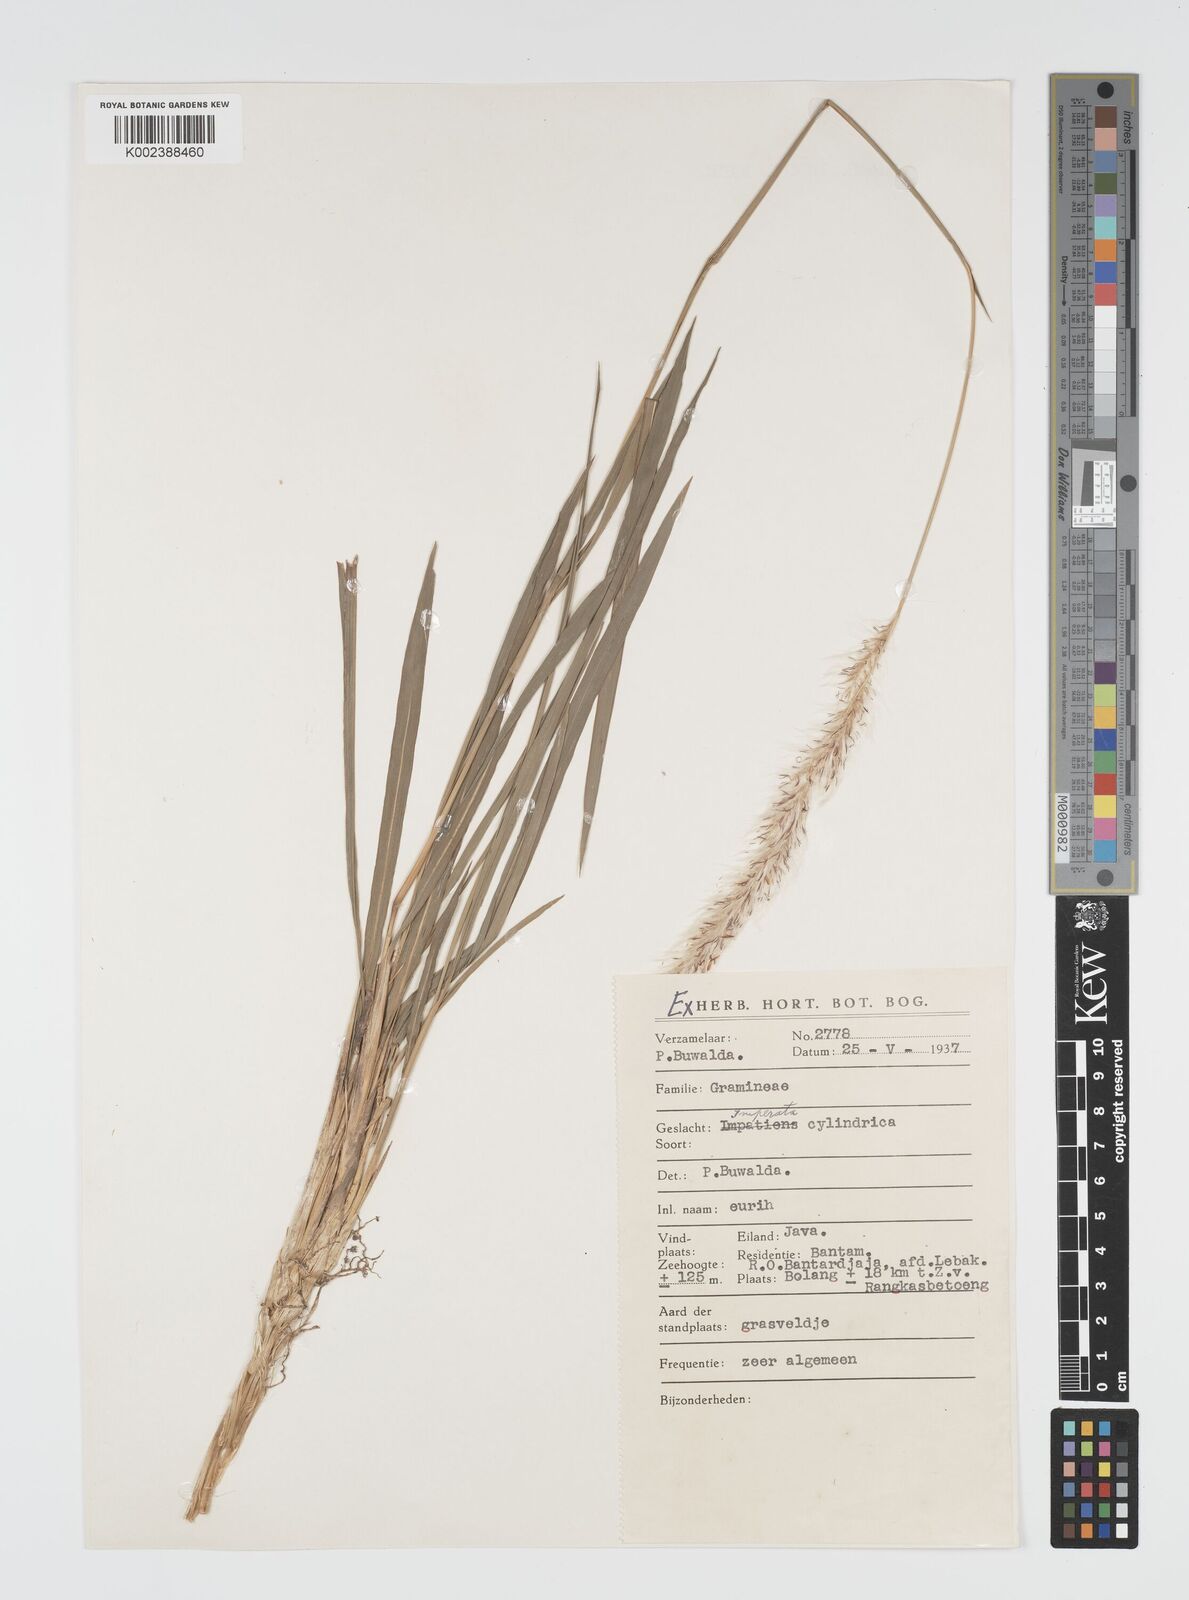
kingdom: Plantae
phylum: Tracheophyta
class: Liliopsida
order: Poales
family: Poaceae
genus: Imperata
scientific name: Imperata
